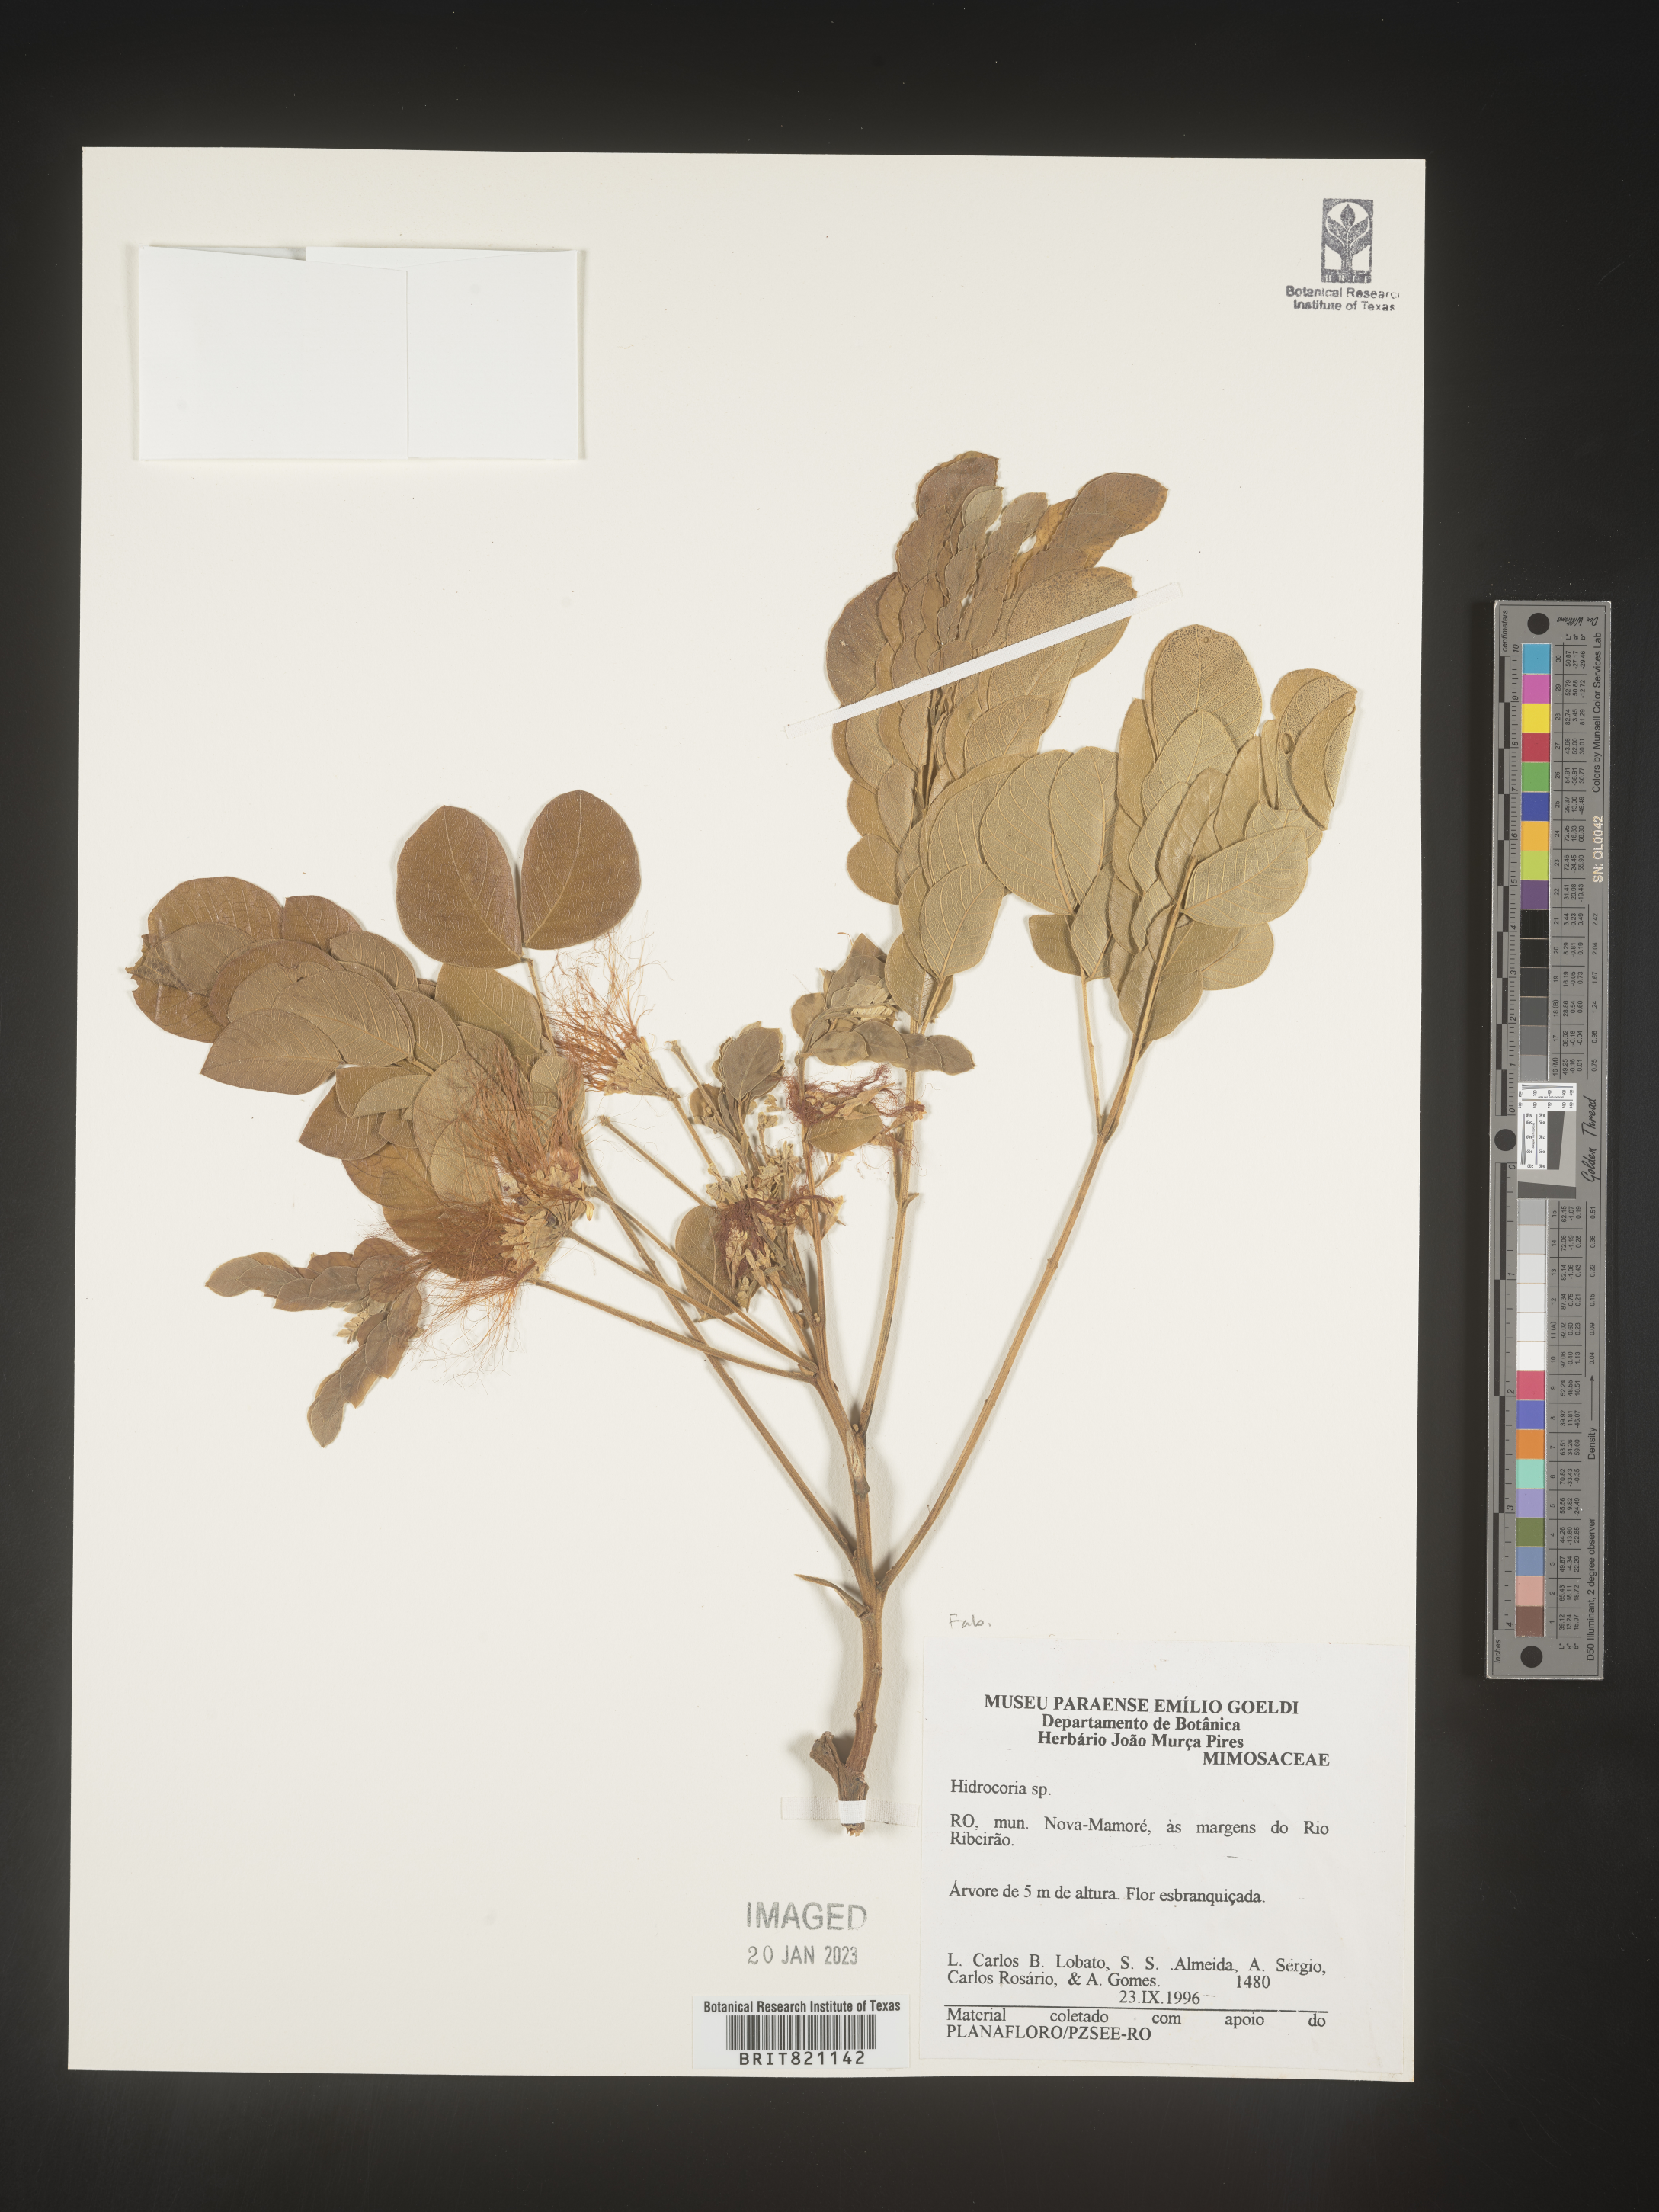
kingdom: Plantae
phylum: Tracheophyta
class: Magnoliopsida
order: Fabales
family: Fabaceae
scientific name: Fabaceae
